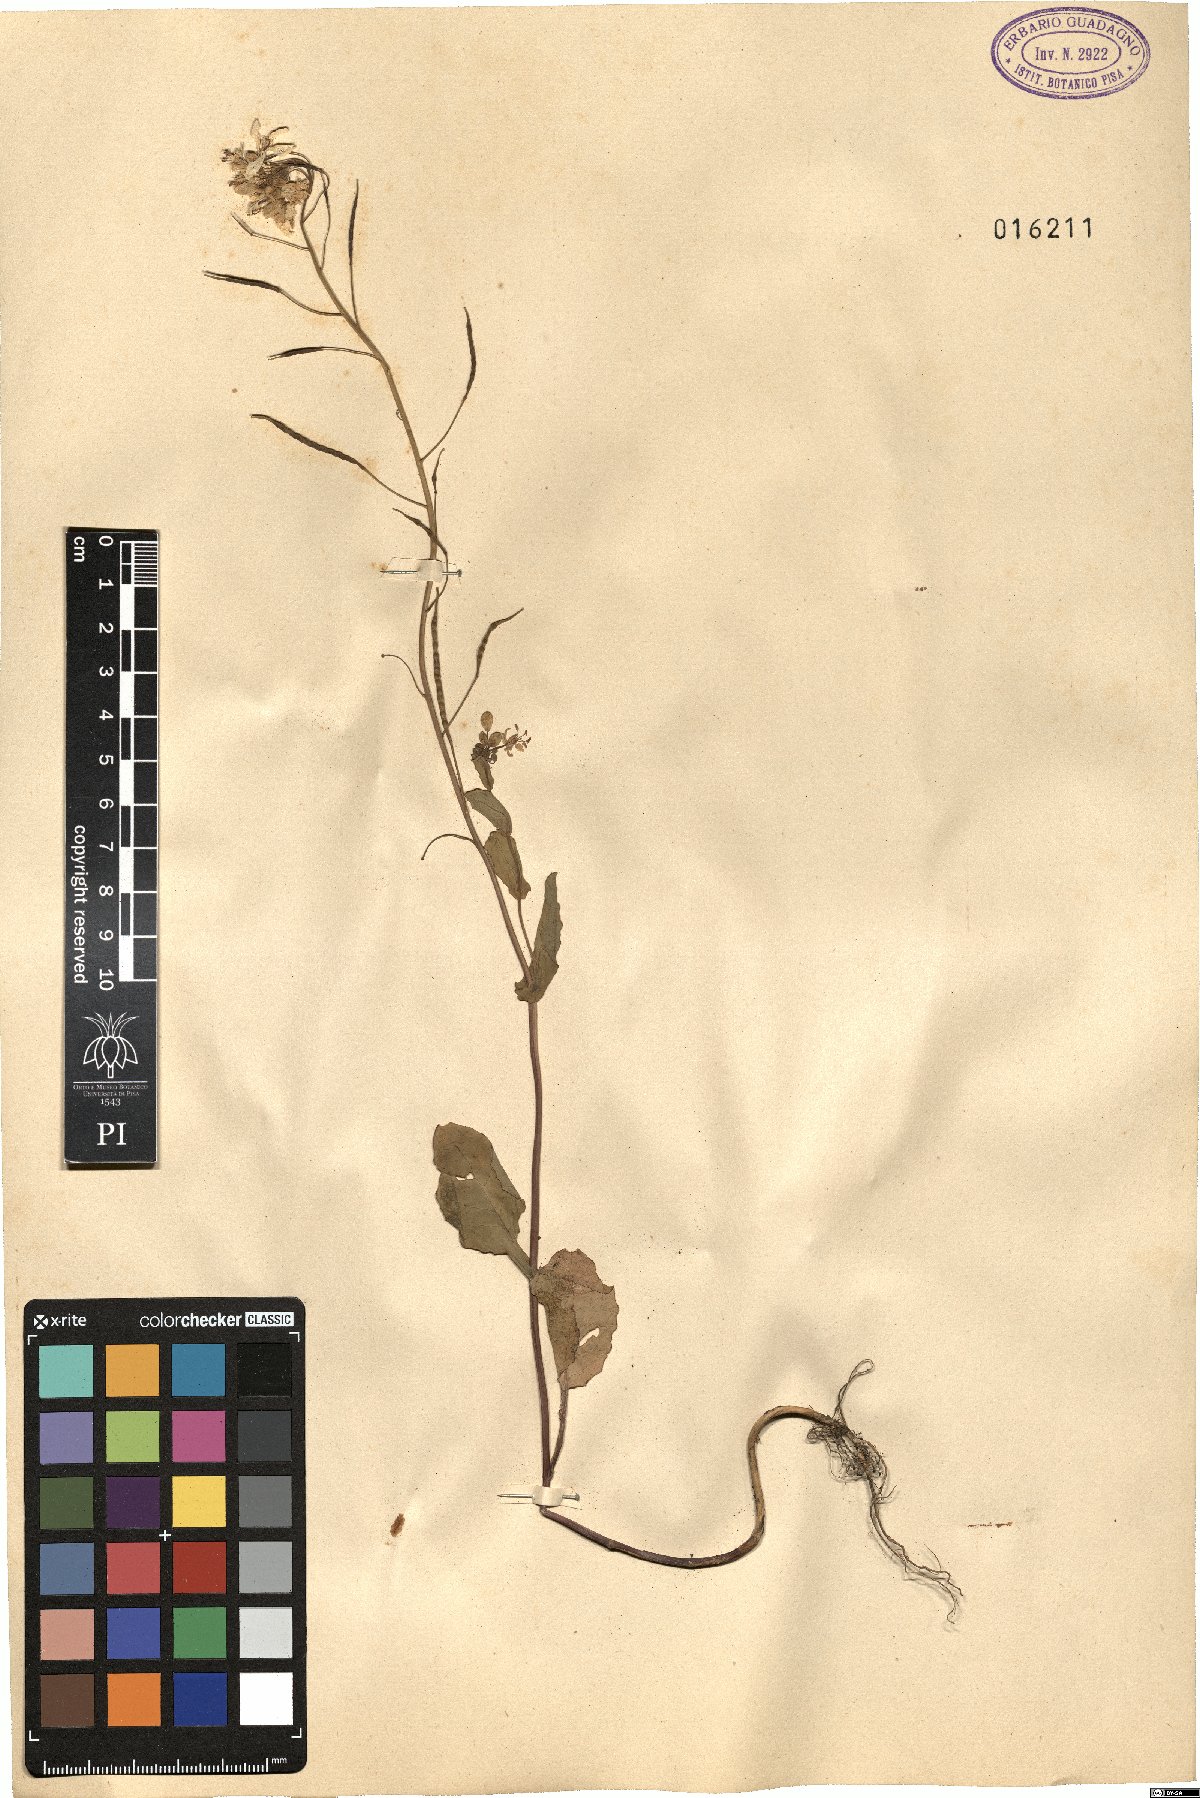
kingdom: Plantae
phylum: Tracheophyta
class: Magnoliopsida
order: Brassicales
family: Brassicaceae
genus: Brassica
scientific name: Brassica
